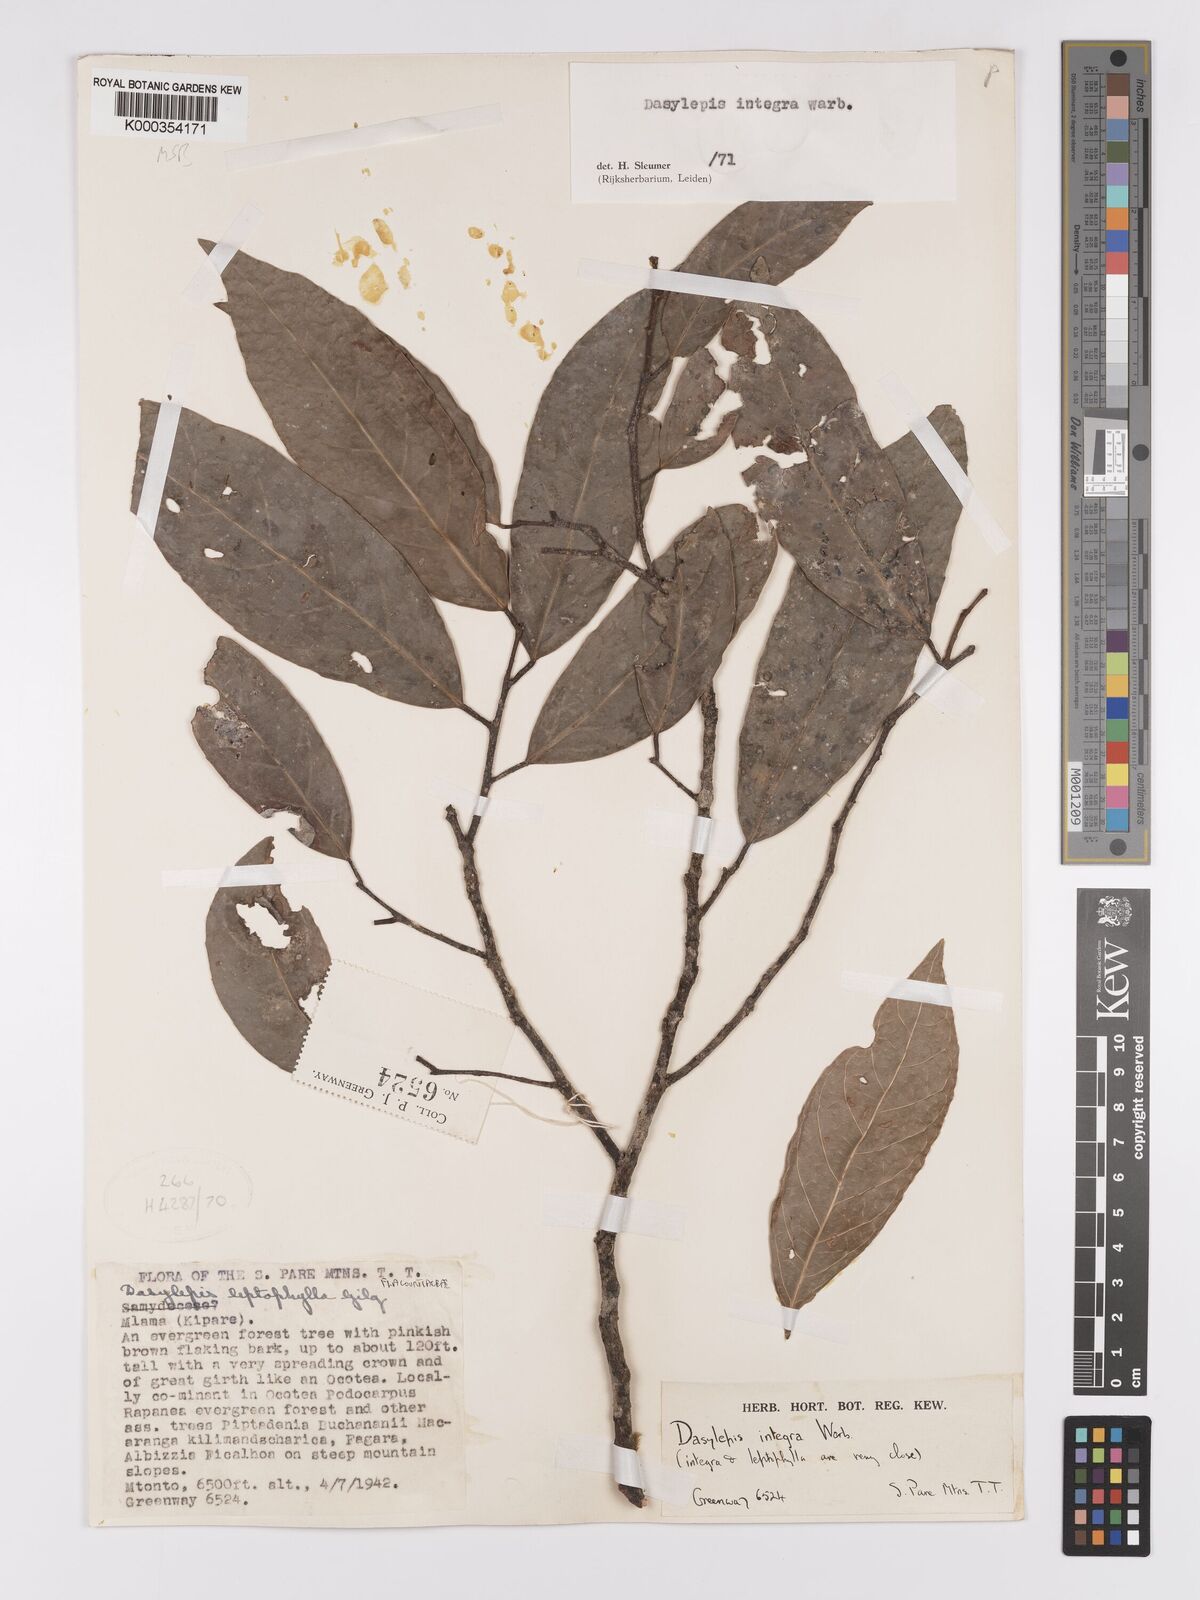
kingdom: Plantae
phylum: Tracheophyta
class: Magnoliopsida
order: Malpighiales
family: Achariaceae
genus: Dasylepis
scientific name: Dasylepis integra
